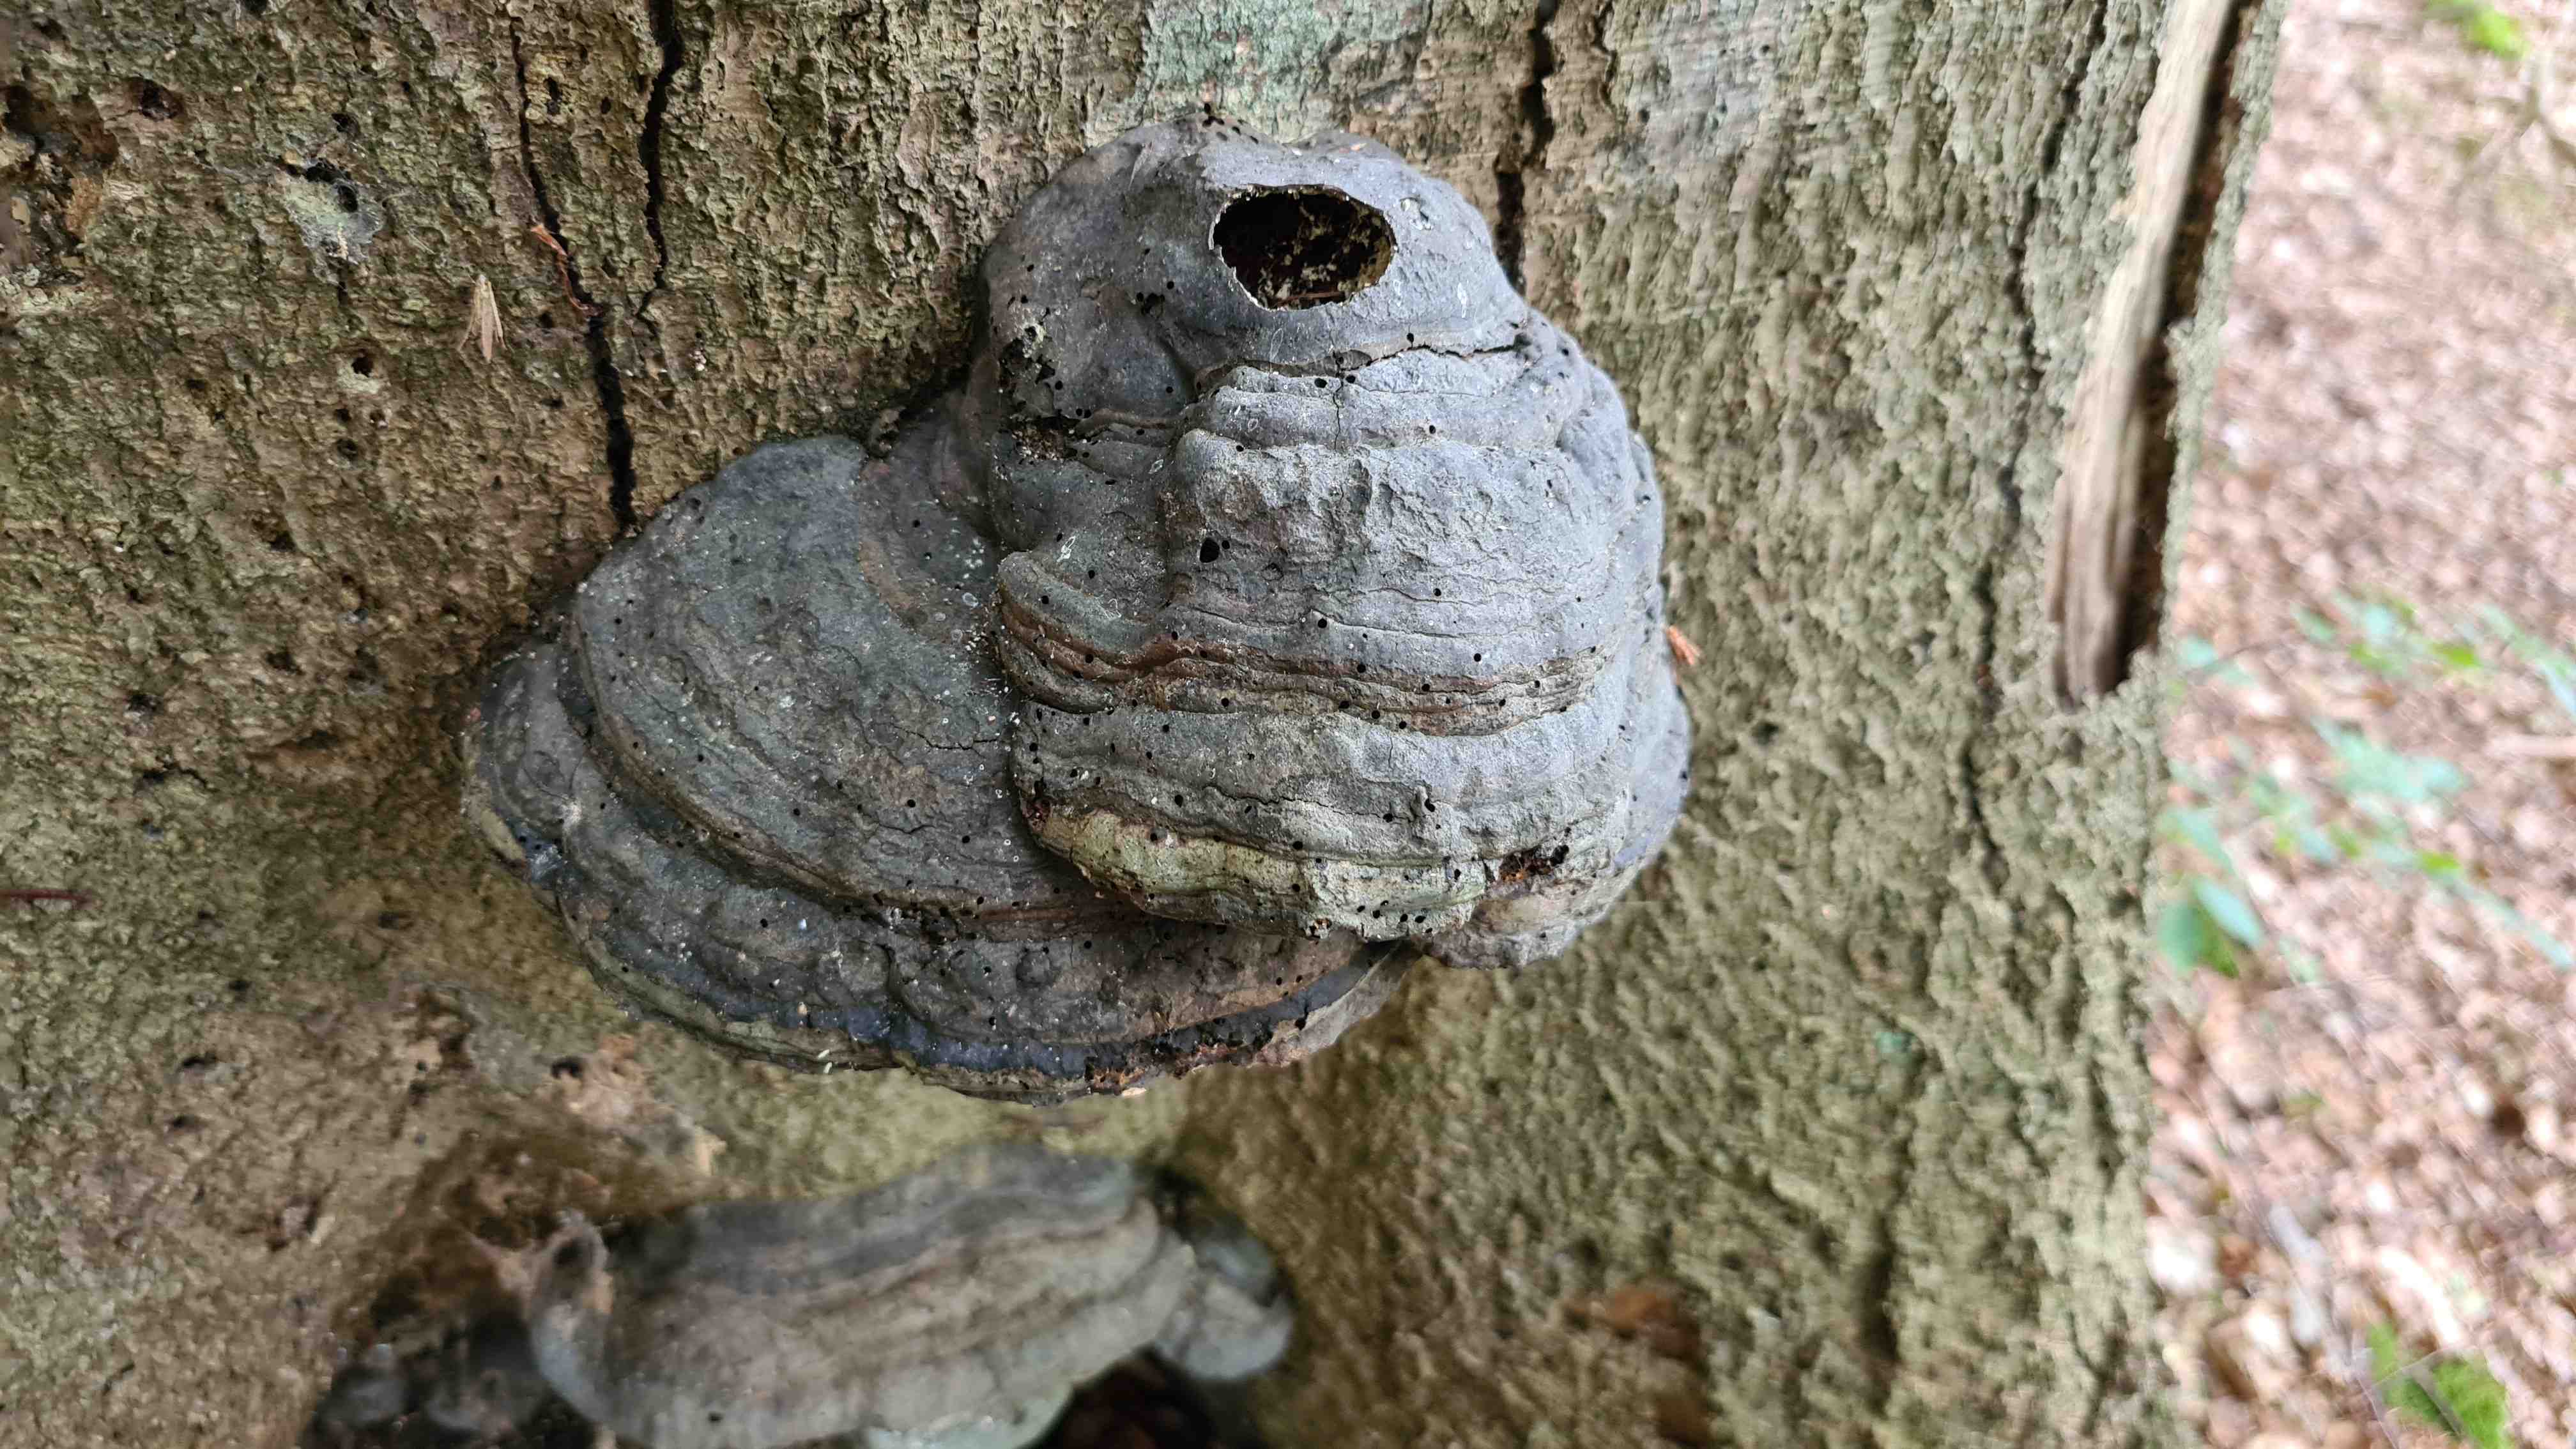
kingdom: Fungi
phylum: Basidiomycota
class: Agaricomycetes
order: Polyporales
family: Polyporaceae
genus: Fomes
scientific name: Fomes fomentarius
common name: tøndersvamp
